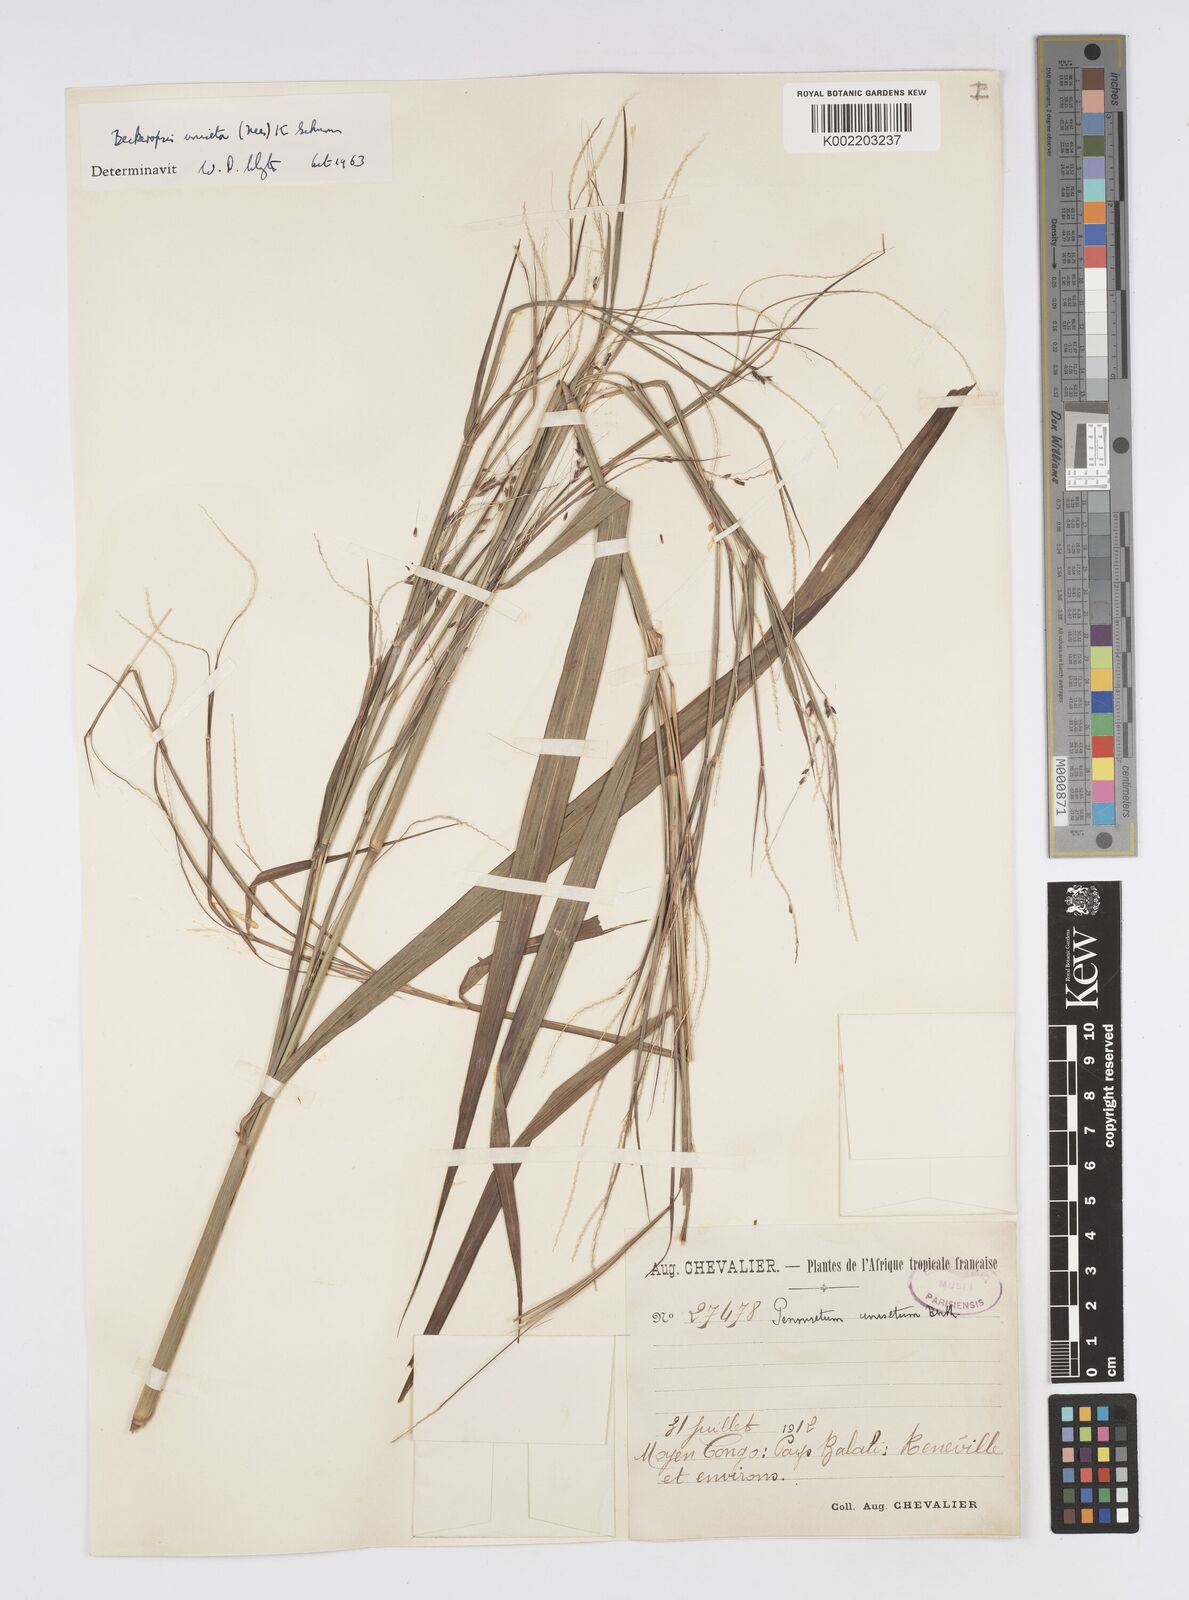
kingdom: Plantae
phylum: Tracheophyta
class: Liliopsida
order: Poales
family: Poaceae
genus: Cenchrus
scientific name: Cenchrus unisetus
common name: Natal grass
